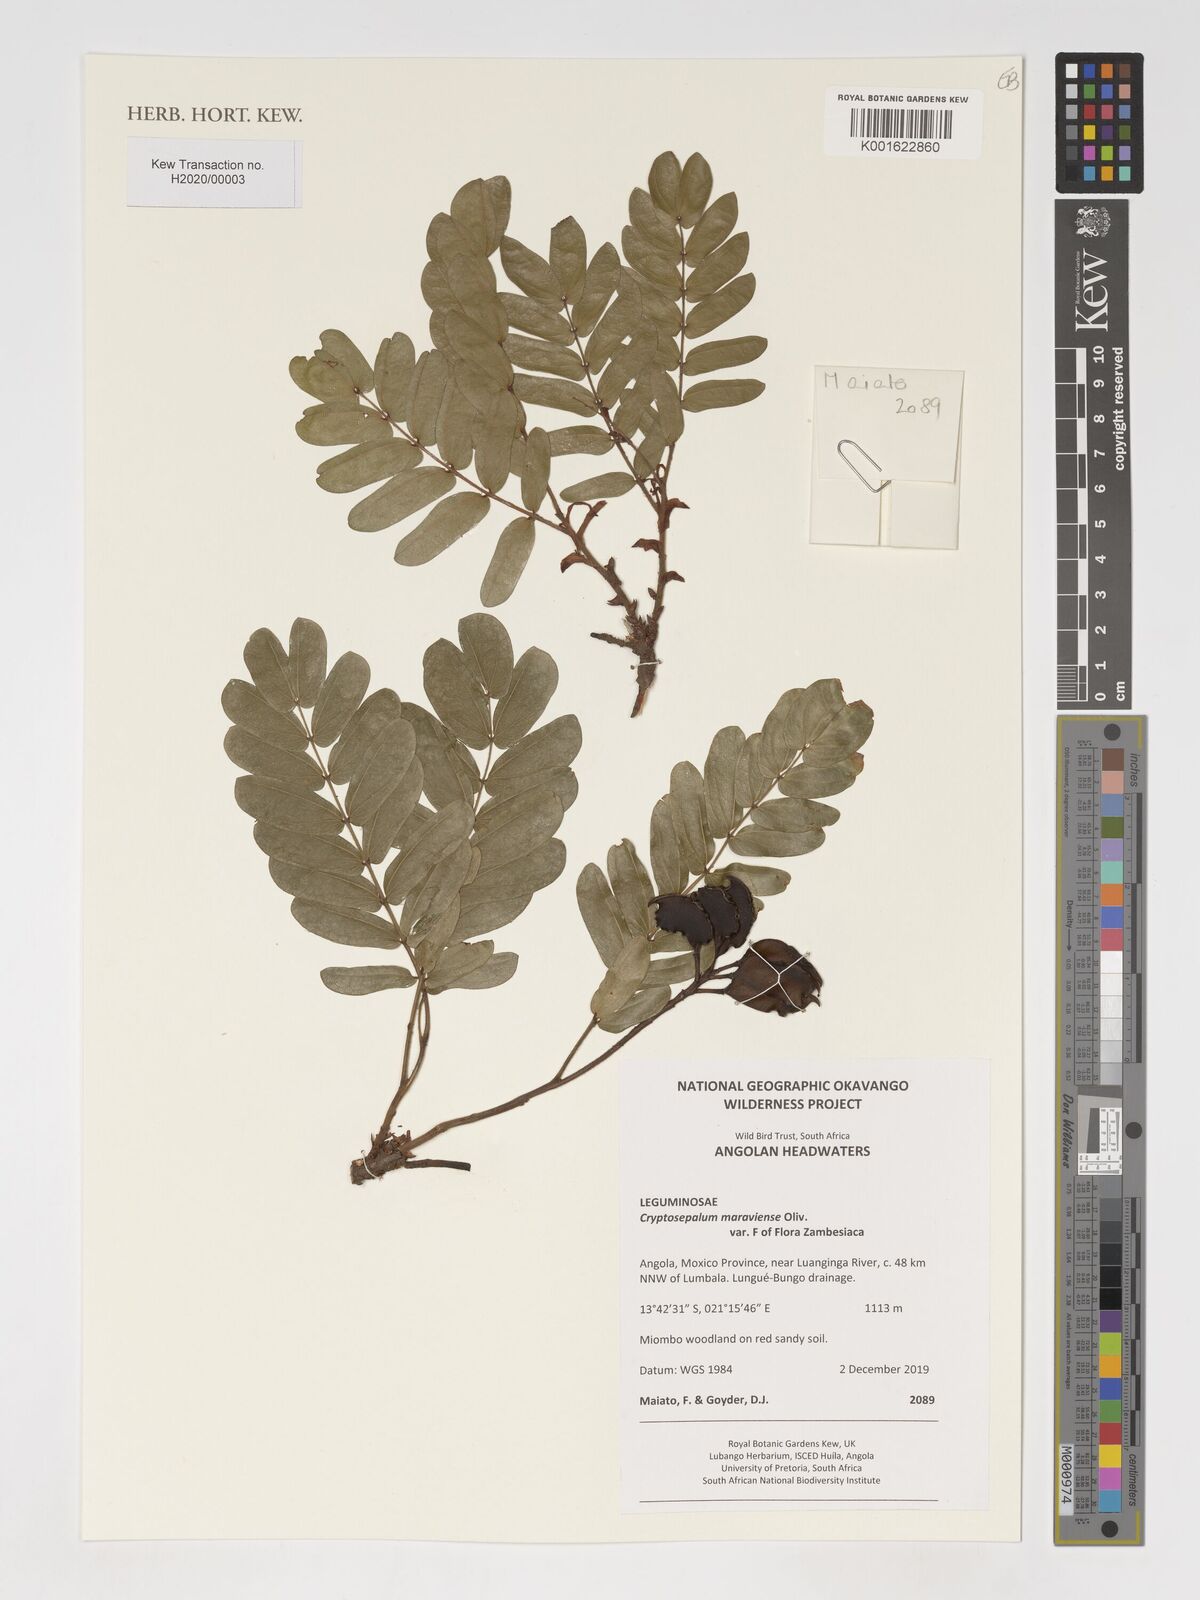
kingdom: Plantae
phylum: Tracheophyta
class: Magnoliopsida
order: Fabales
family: Fabaceae
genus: Cryptosepalum
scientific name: Cryptosepalum maraviense
